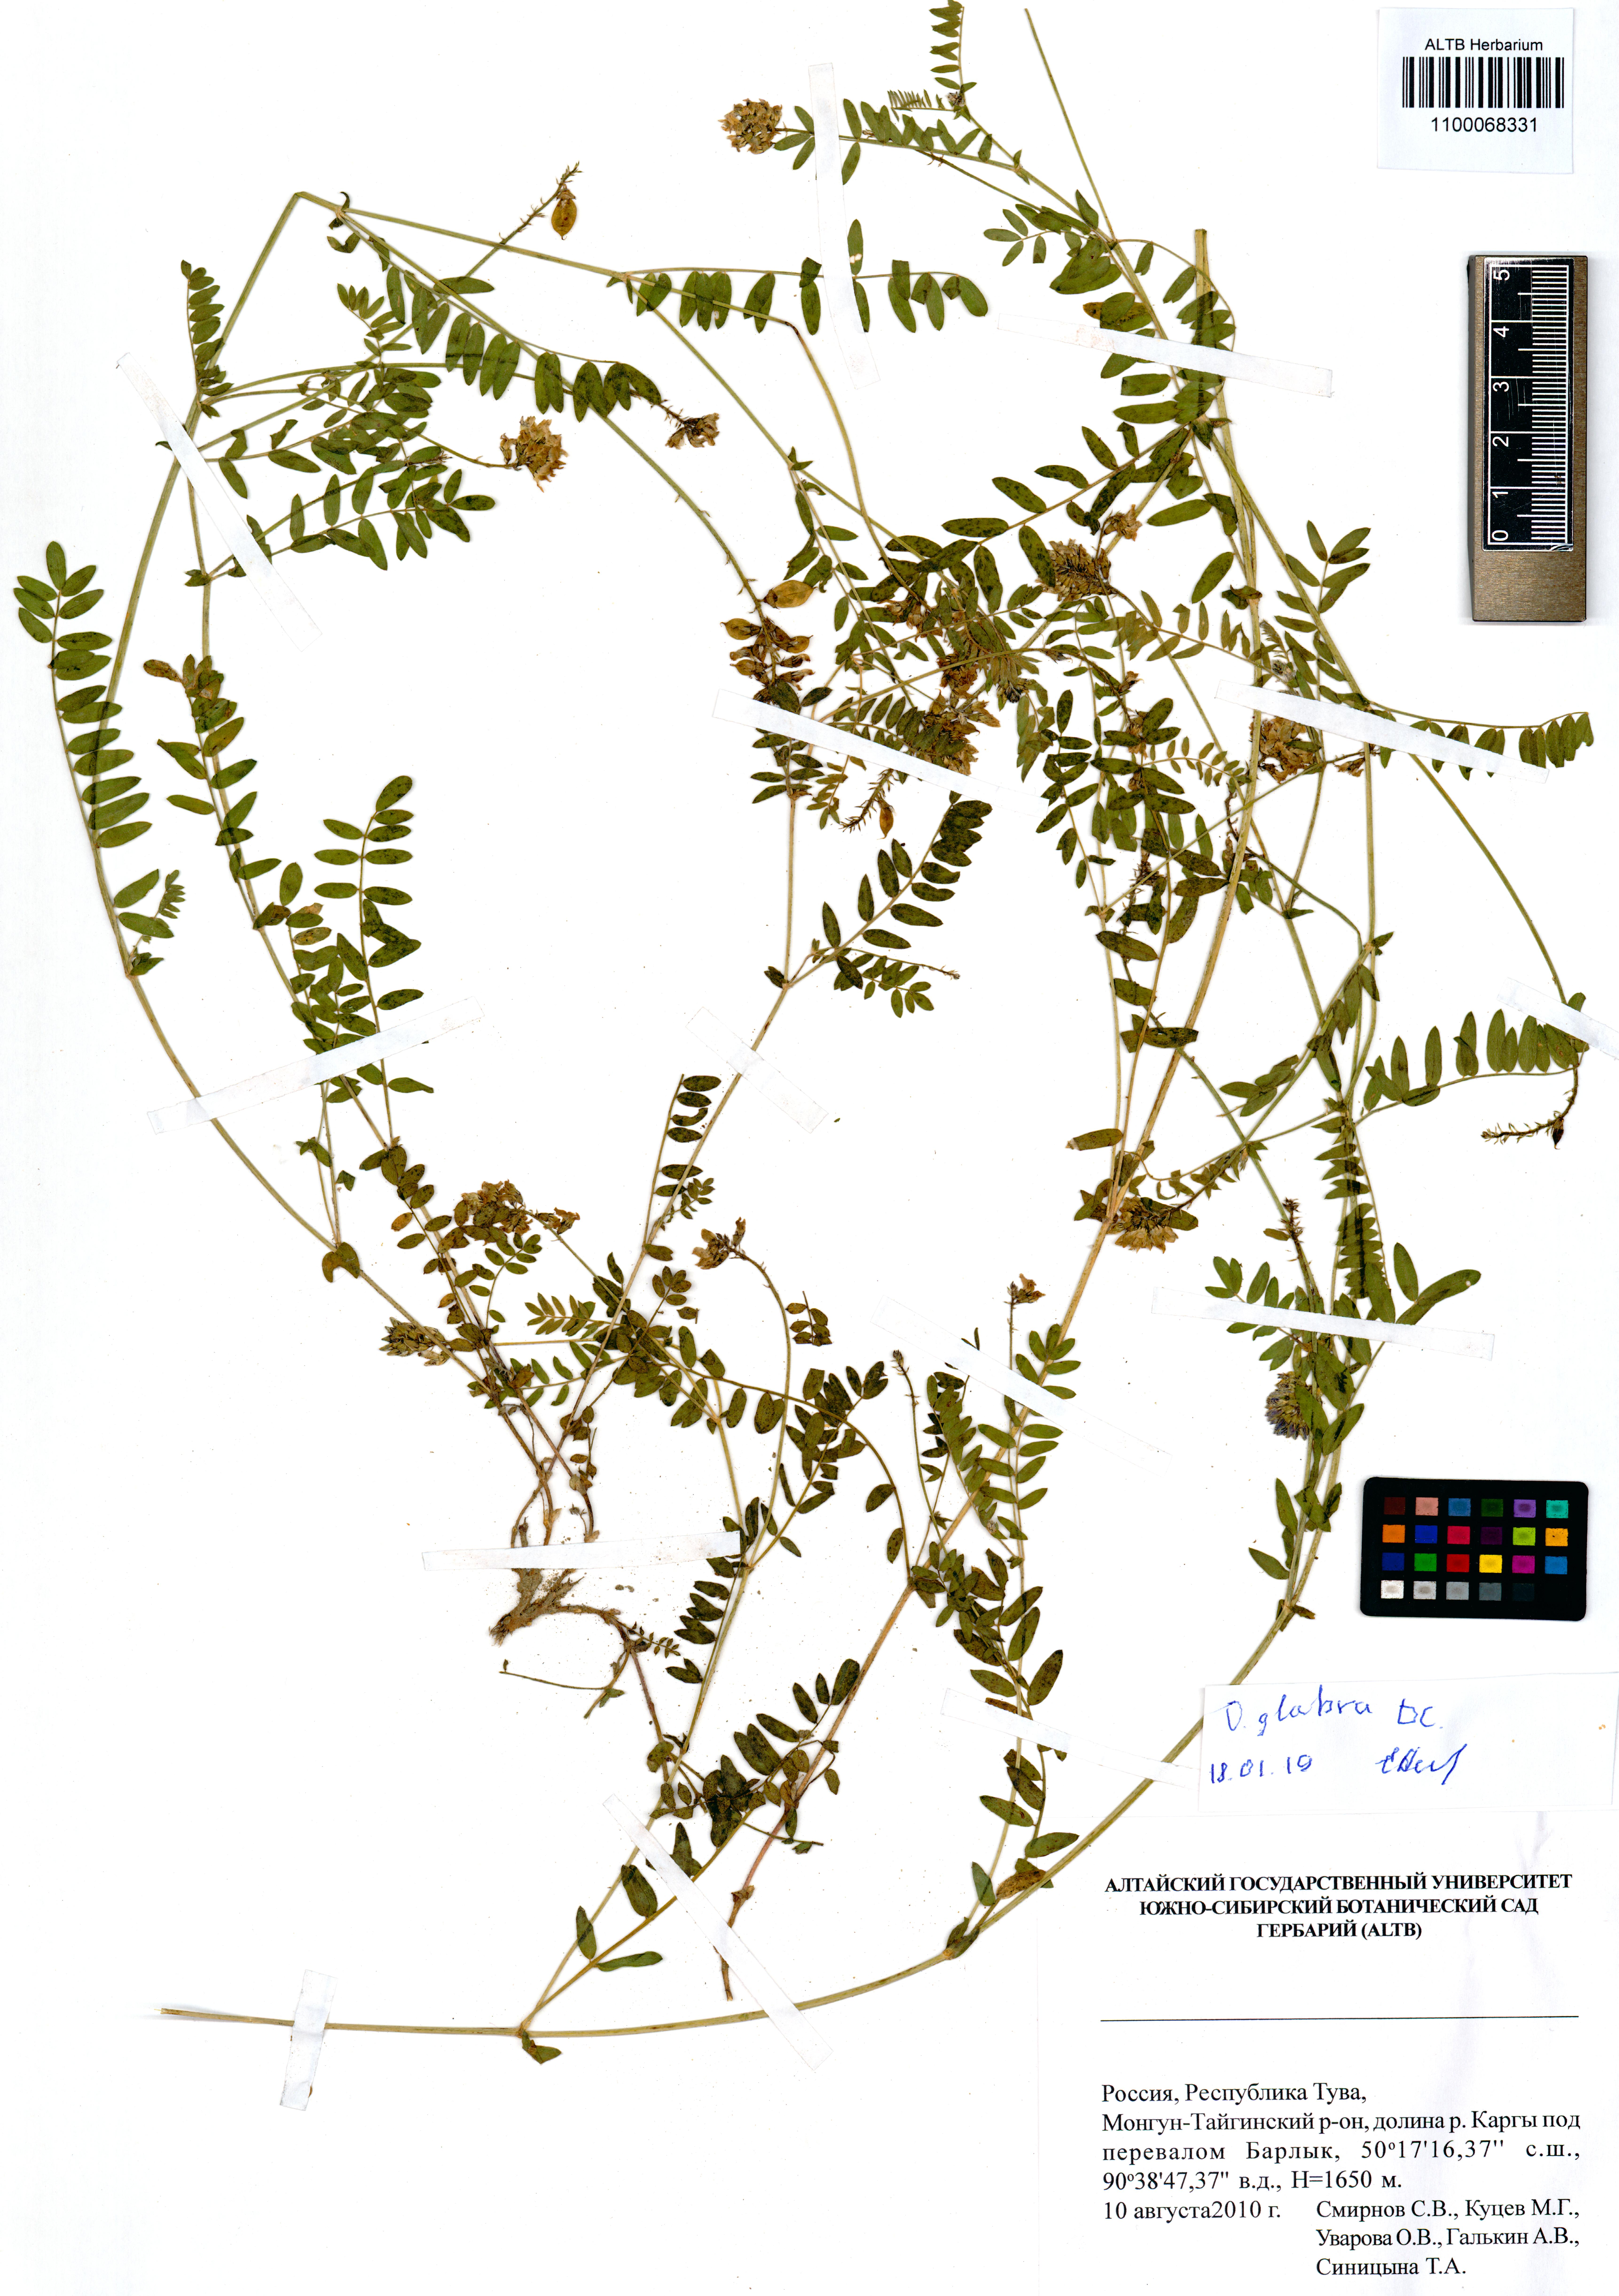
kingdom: Plantae
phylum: Tracheophyta
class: Magnoliopsida
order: Fabales
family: Fabaceae
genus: Oxytropis
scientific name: Oxytropis glabra
